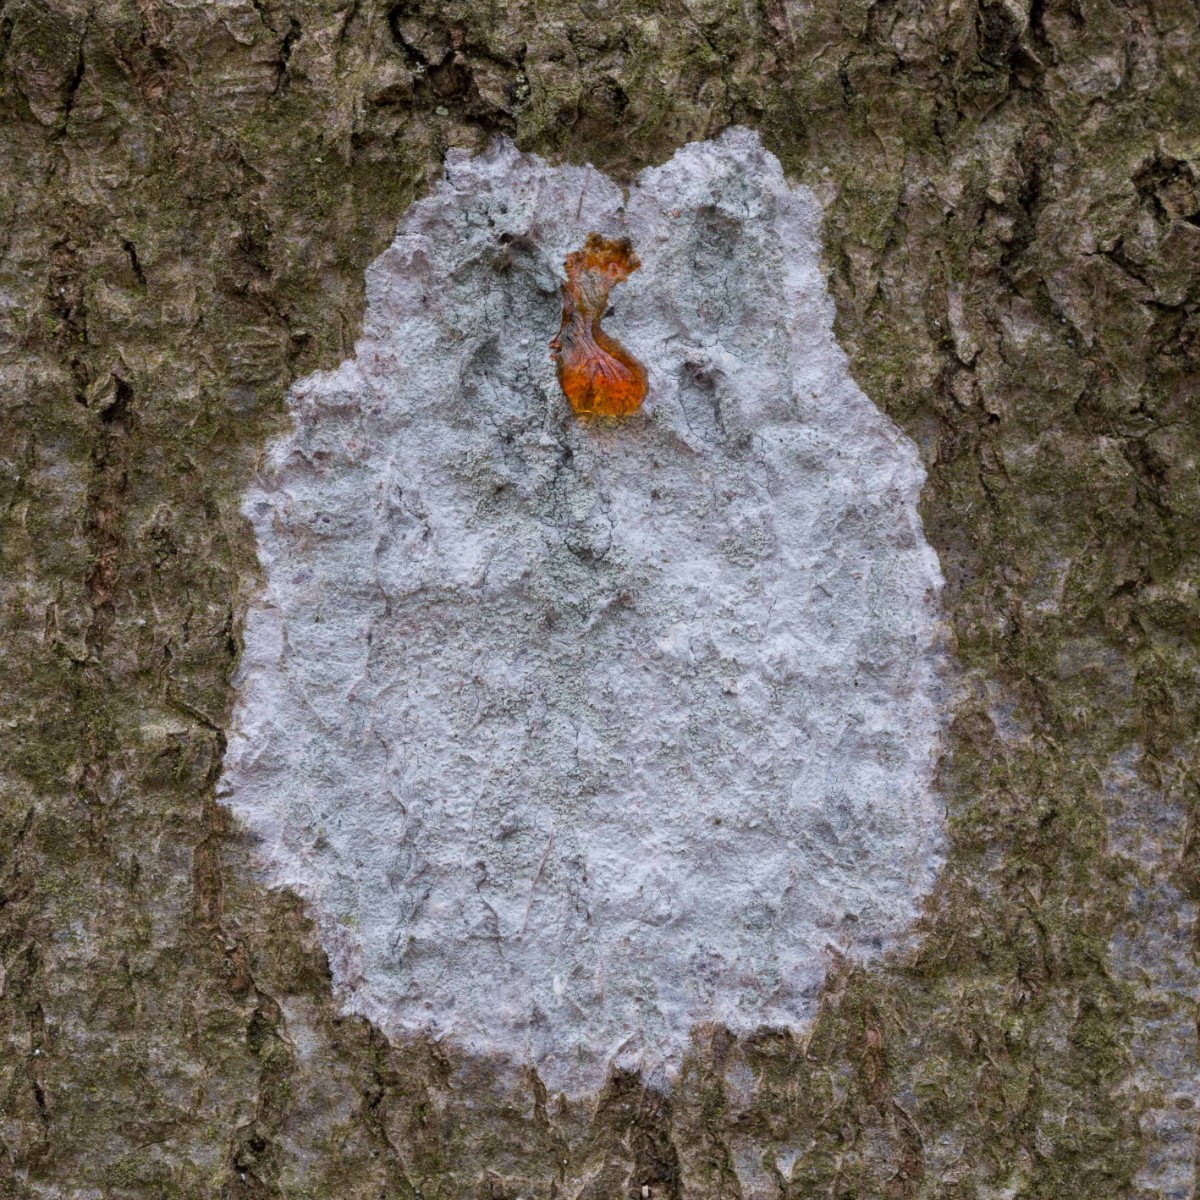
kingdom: Fungi
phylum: Ascomycota
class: Lecanoromycetes
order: Ostropales
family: Phlyctidaceae
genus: Phlyctis
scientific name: Phlyctis argena
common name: almindelig sølvlav
